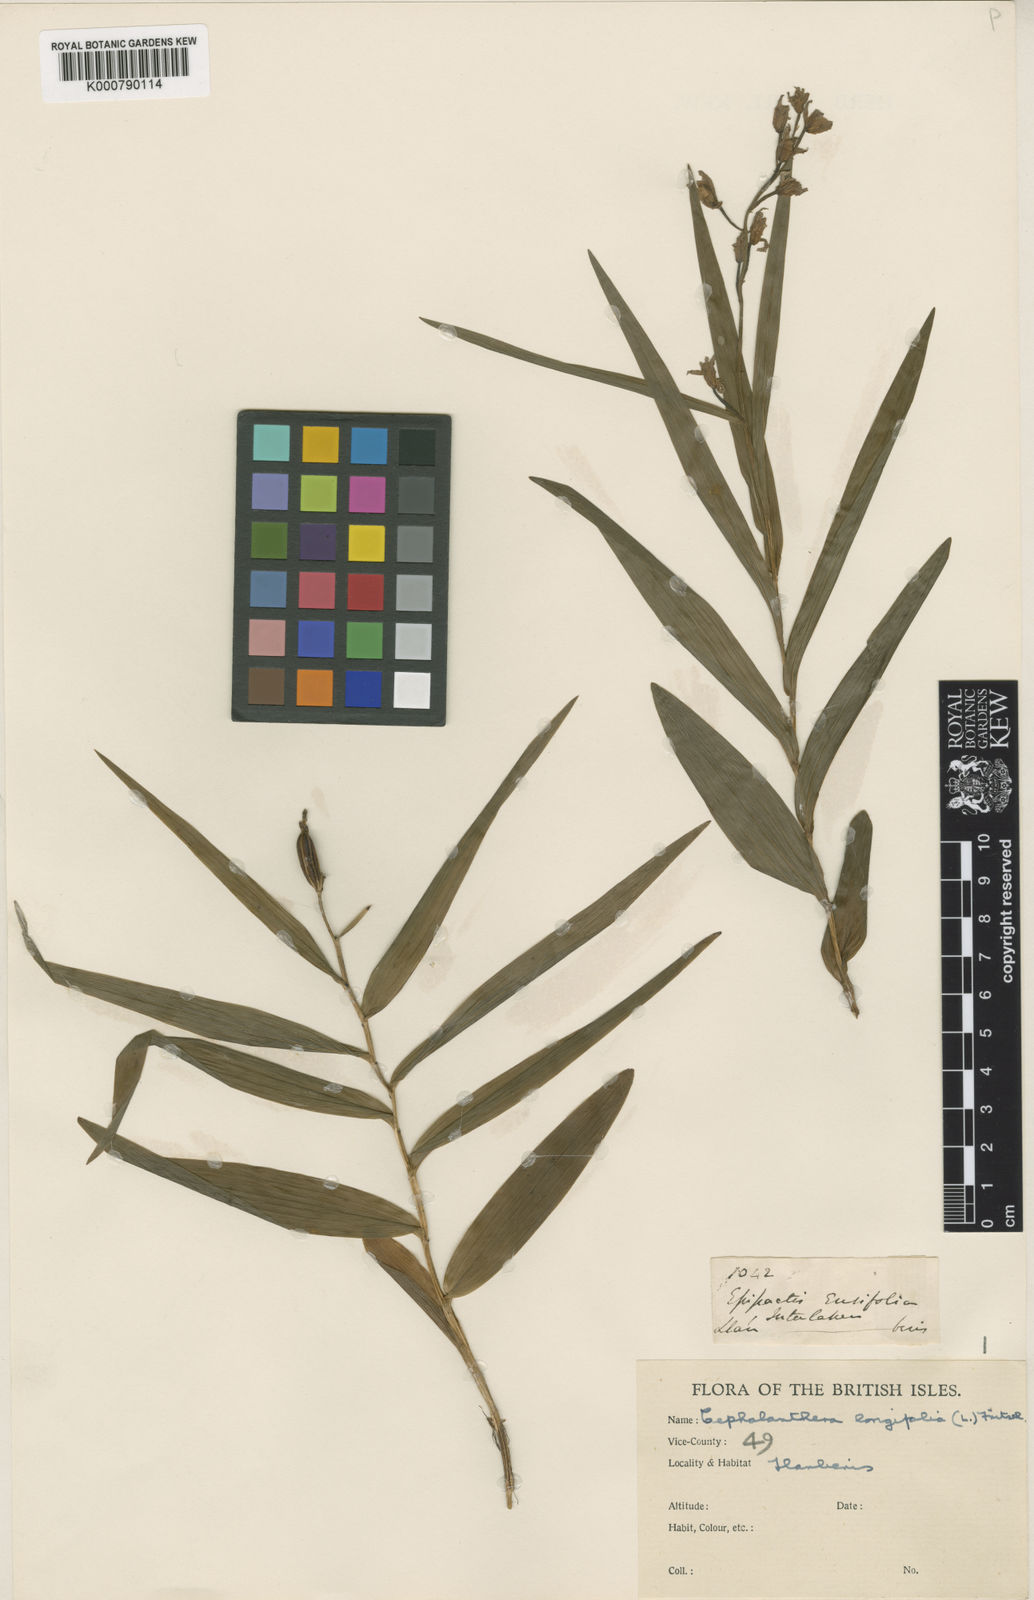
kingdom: Plantae
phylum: Tracheophyta
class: Liliopsida
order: Asparagales
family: Orchidaceae
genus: Cephalanthera
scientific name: Cephalanthera longifolia
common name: Narrow-leaved helleborine
